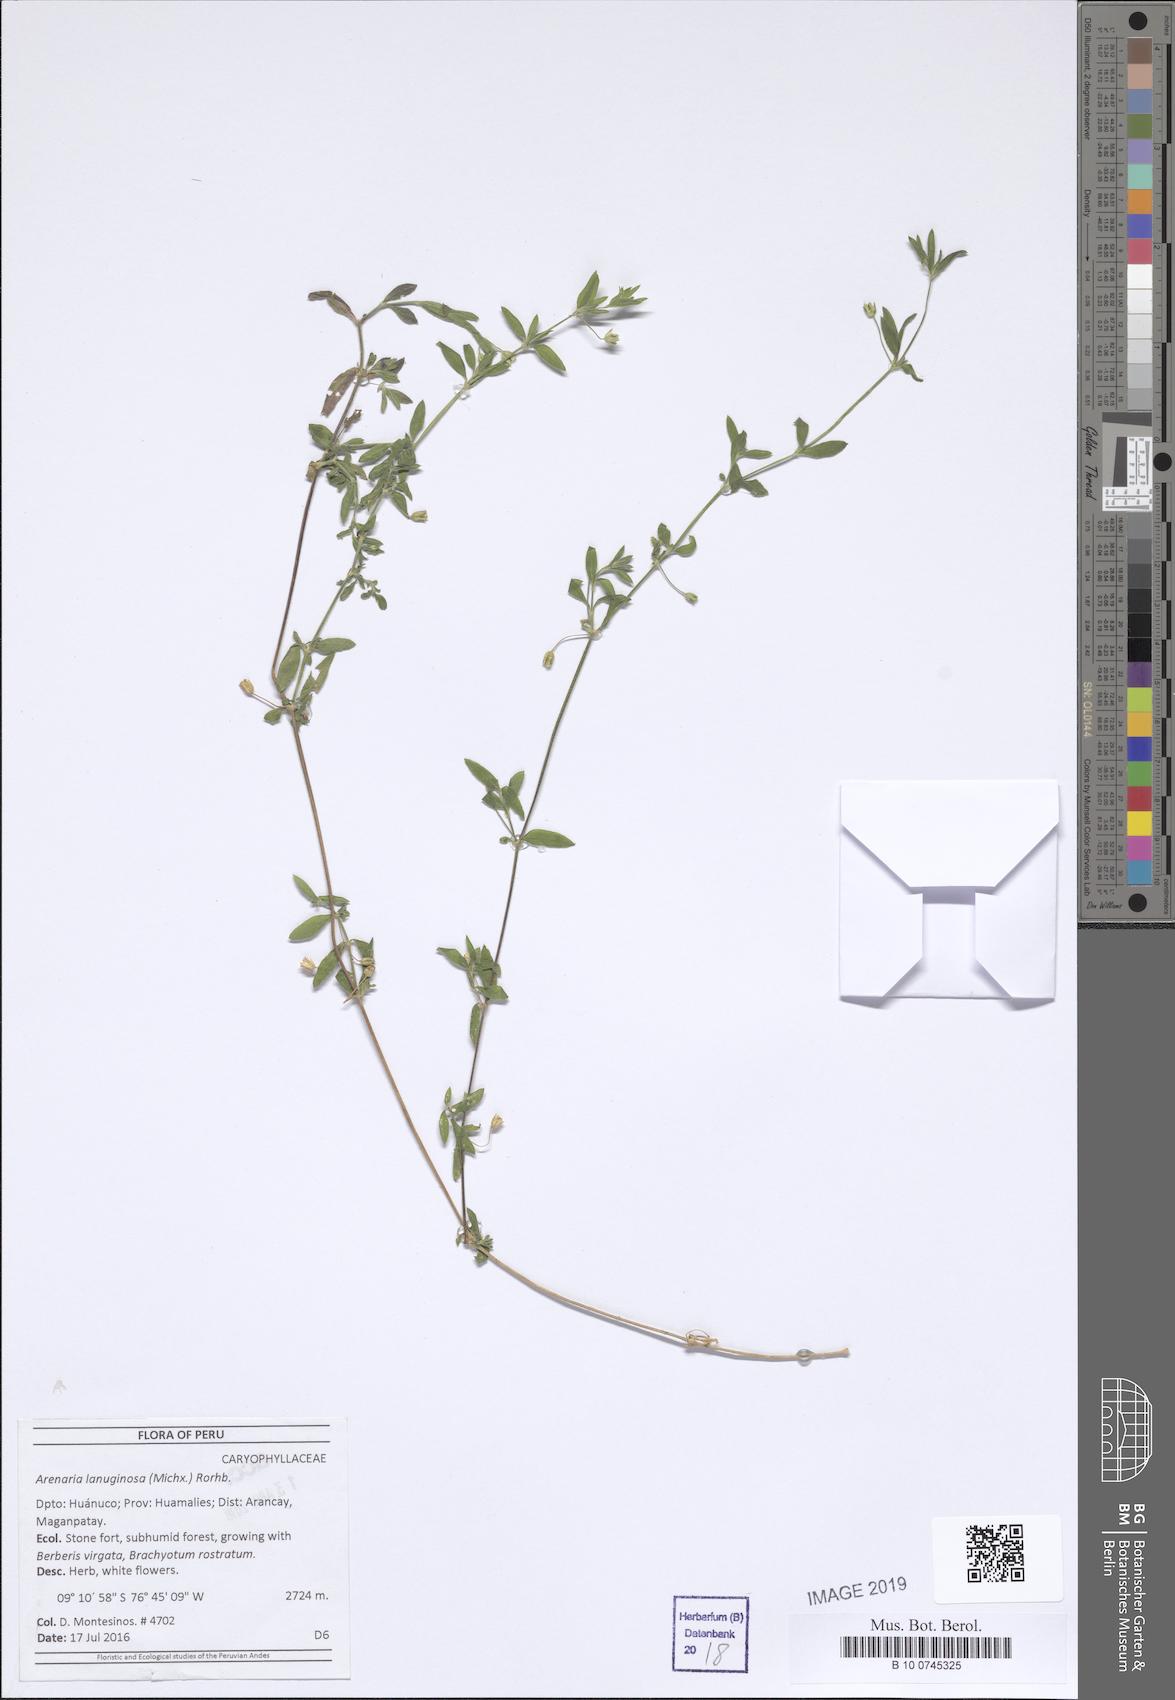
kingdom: Plantae
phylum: Tracheophyta
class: Magnoliopsida
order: Caryophyllales
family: Caryophyllaceae
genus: Arenaria
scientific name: Arenaria lanuginosa
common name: Spread sandwort
